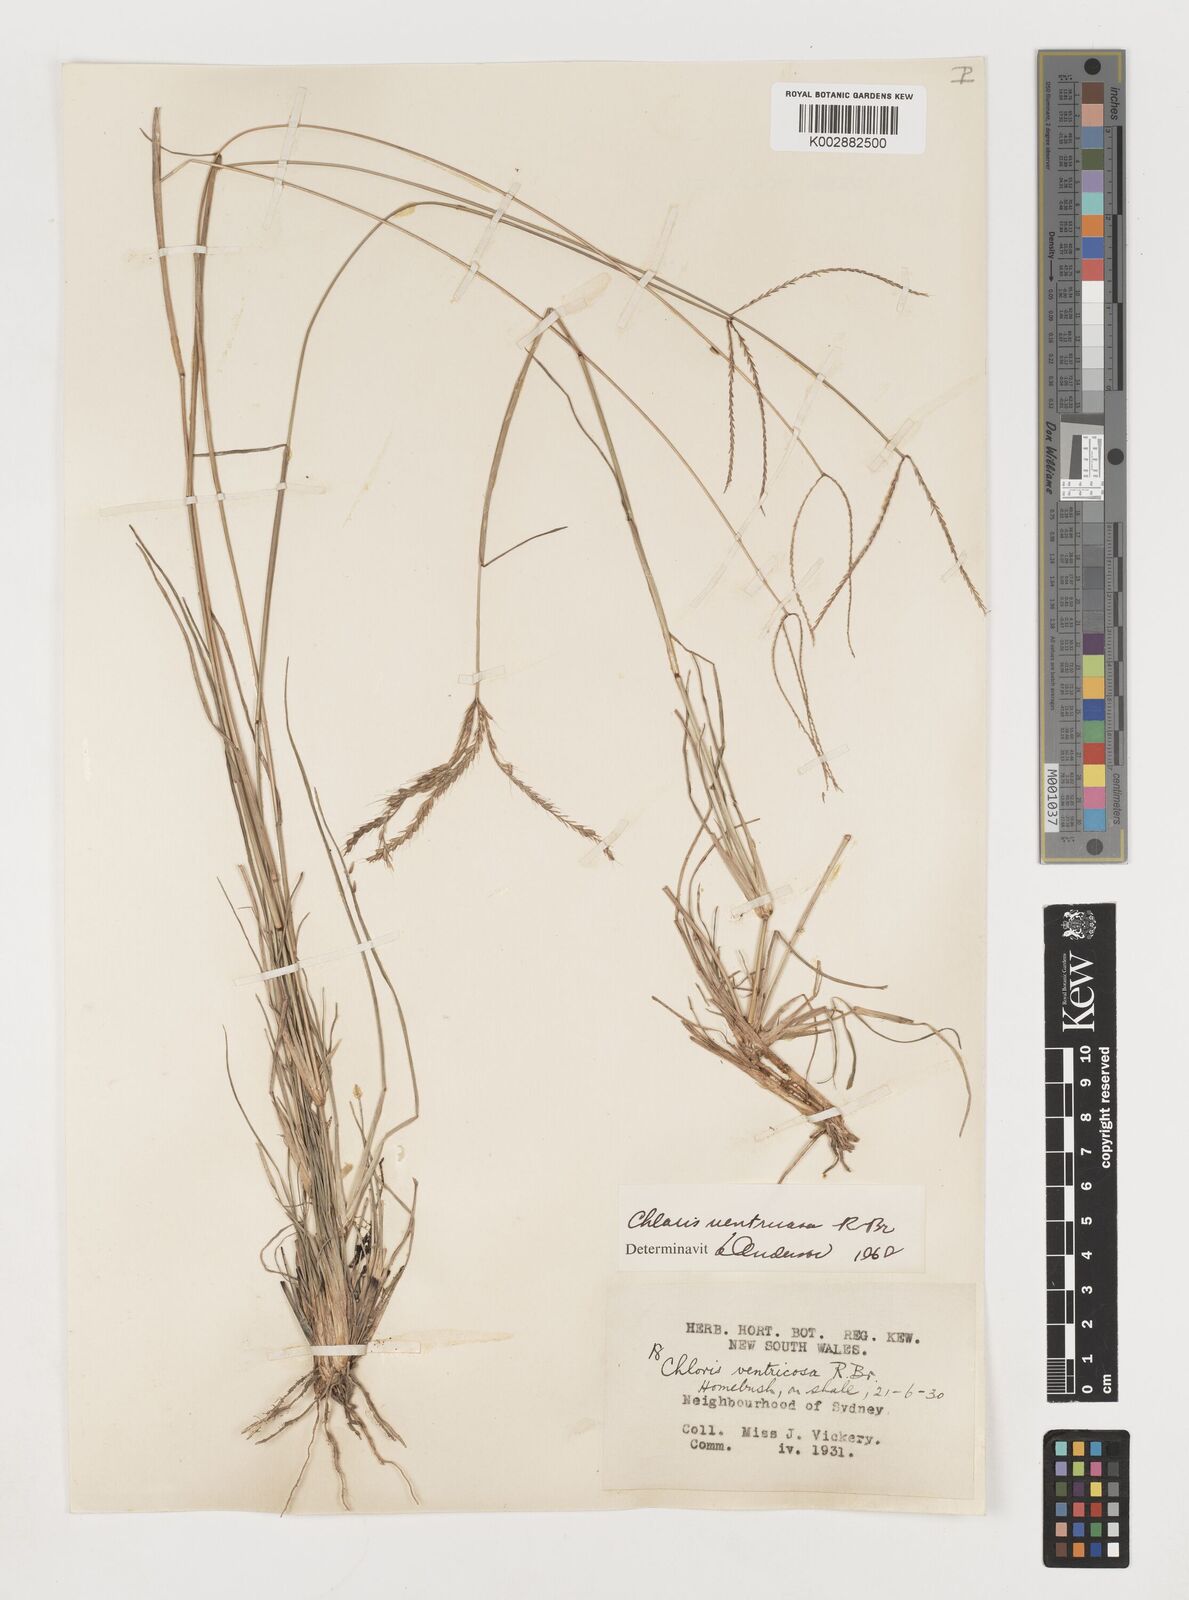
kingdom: Plantae
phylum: Tracheophyta
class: Liliopsida
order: Poales
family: Poaceae
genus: Chloris
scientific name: Chloris ventricosa
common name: Australian windmill grass
